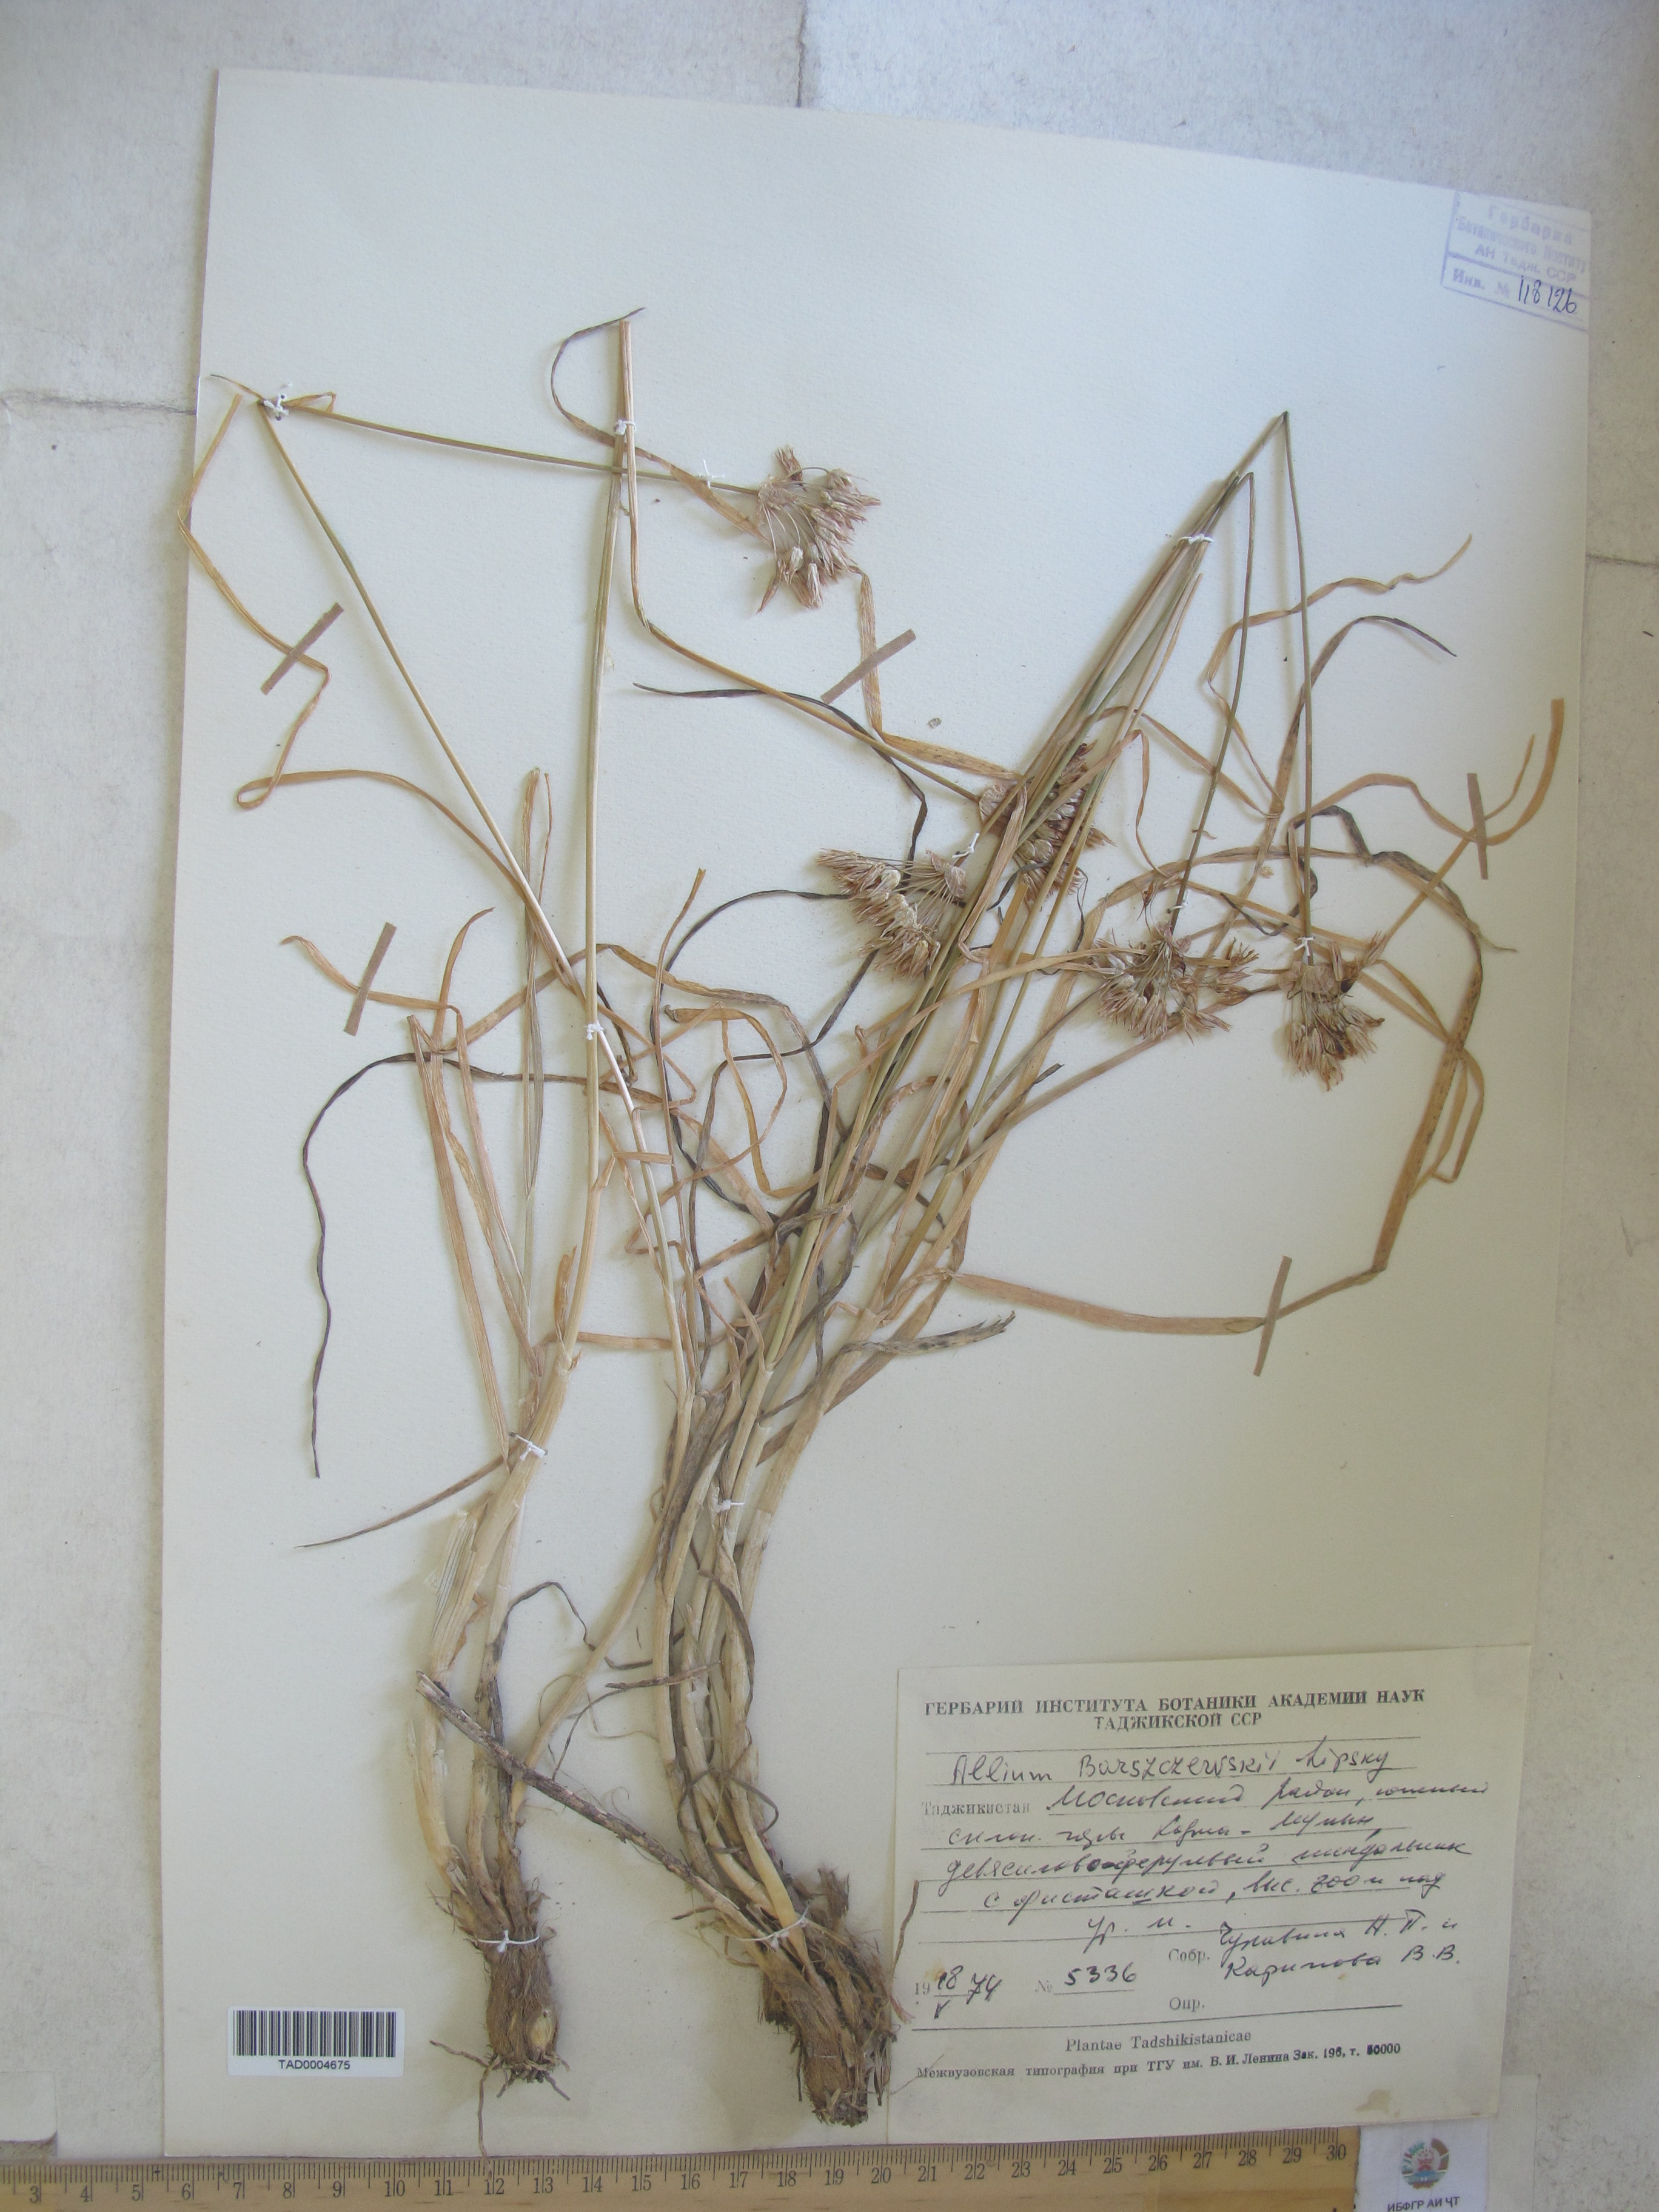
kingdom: Plantae
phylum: Tracheophyta
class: Liliopsida
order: Asparagales
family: Amaryllidaceae
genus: Allium
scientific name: Allium barsczewskii
